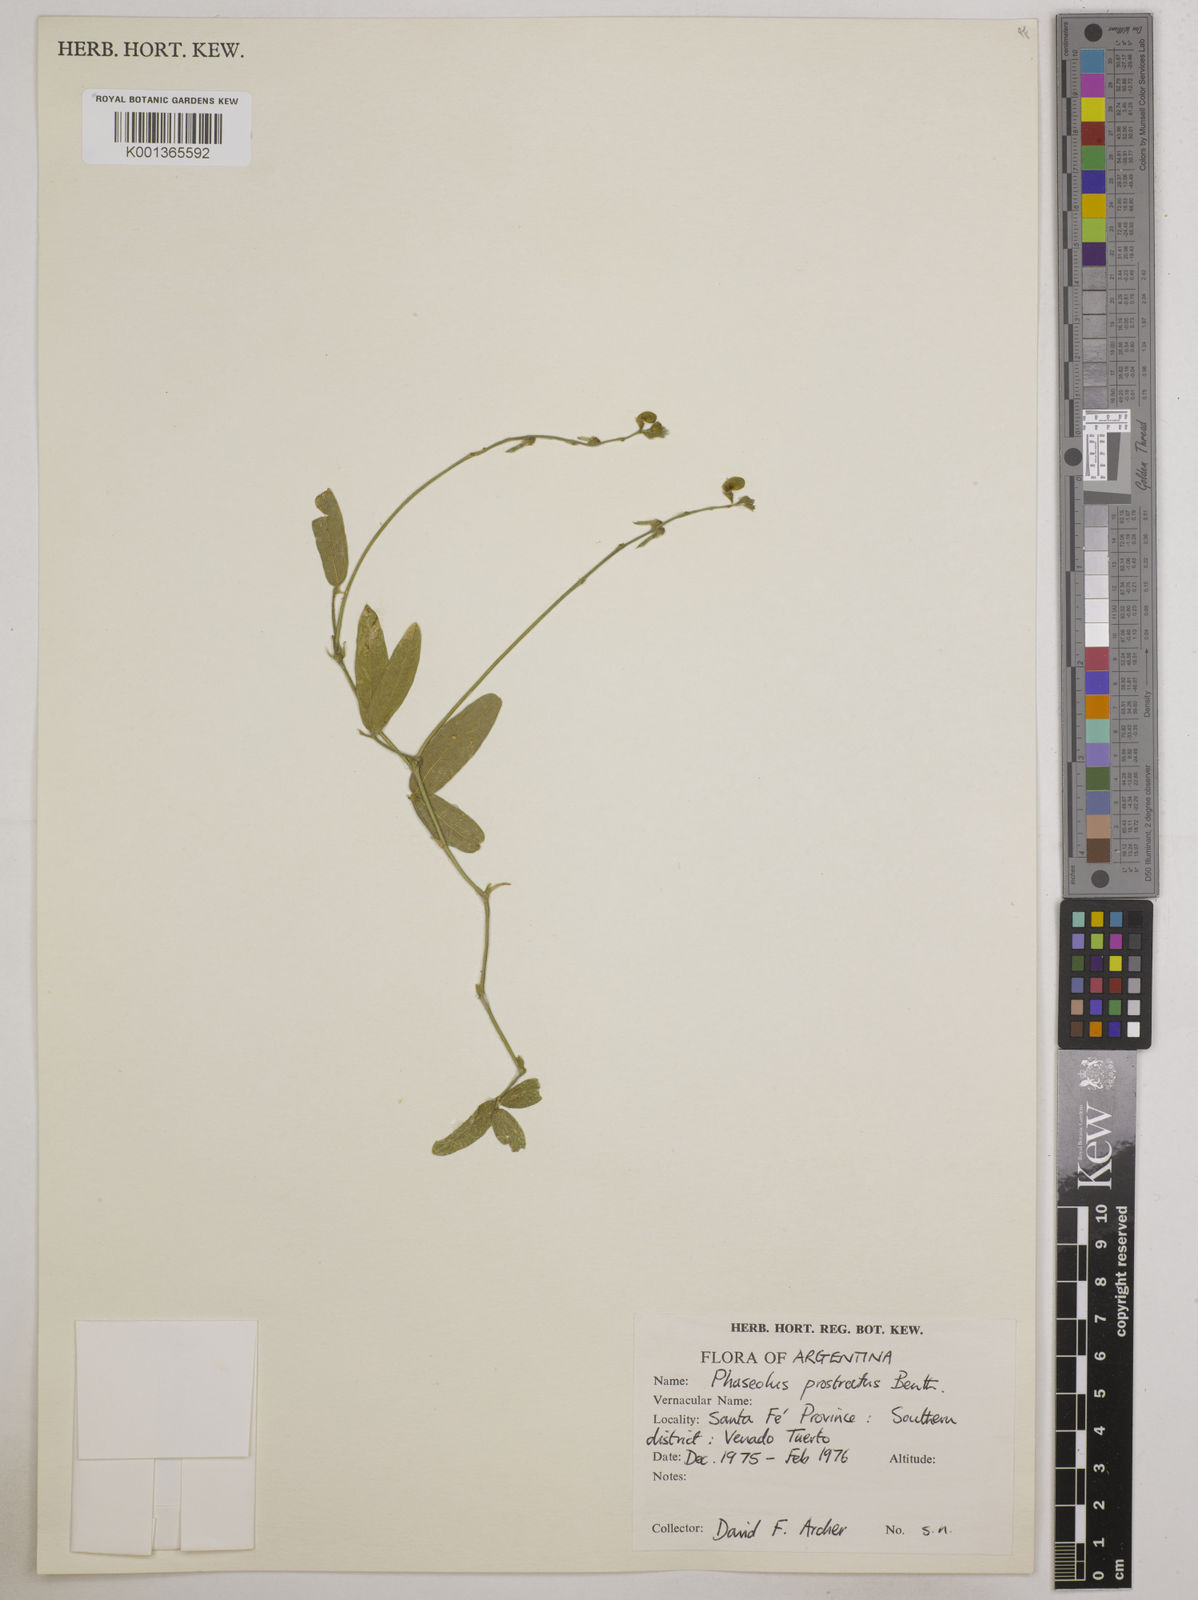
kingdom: Plantae
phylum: Tracheophyta
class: Magnoliopsida
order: Fabales
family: Fabaceae
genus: Macroptilium
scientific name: Macroptilium prostratum
